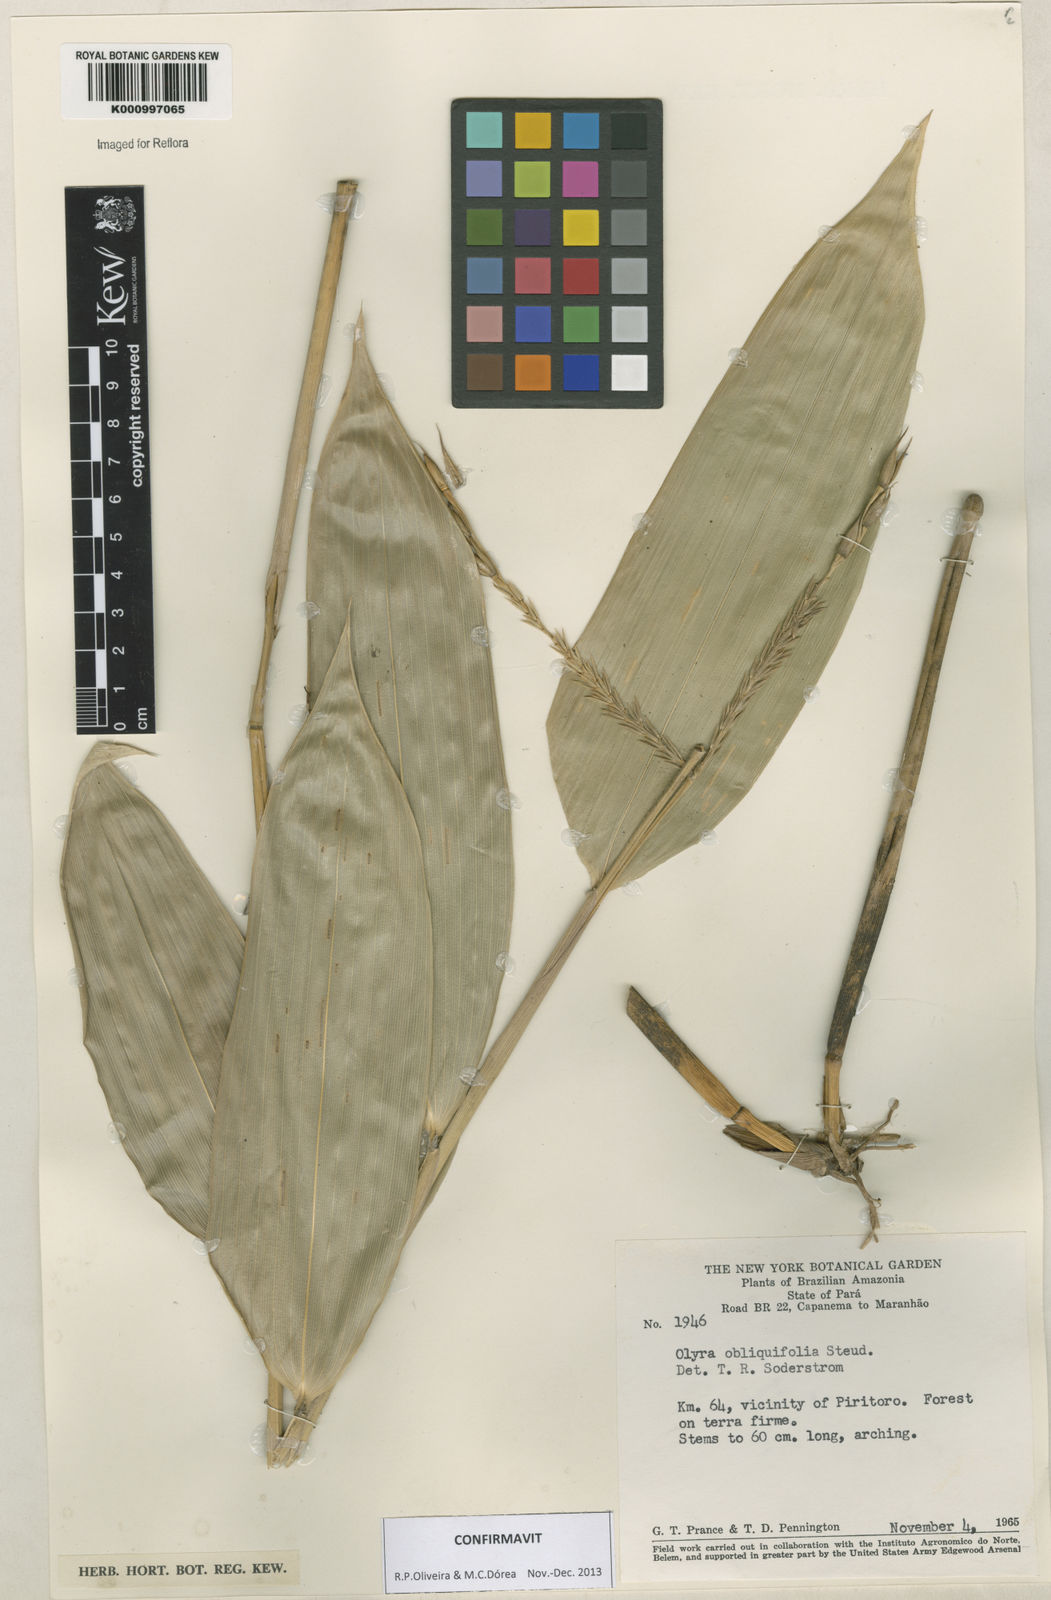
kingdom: Plantae
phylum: Tracheophyta
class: Liliopsida
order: Poales
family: Poaceae
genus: Olyra
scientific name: Olyra obliquifolia
